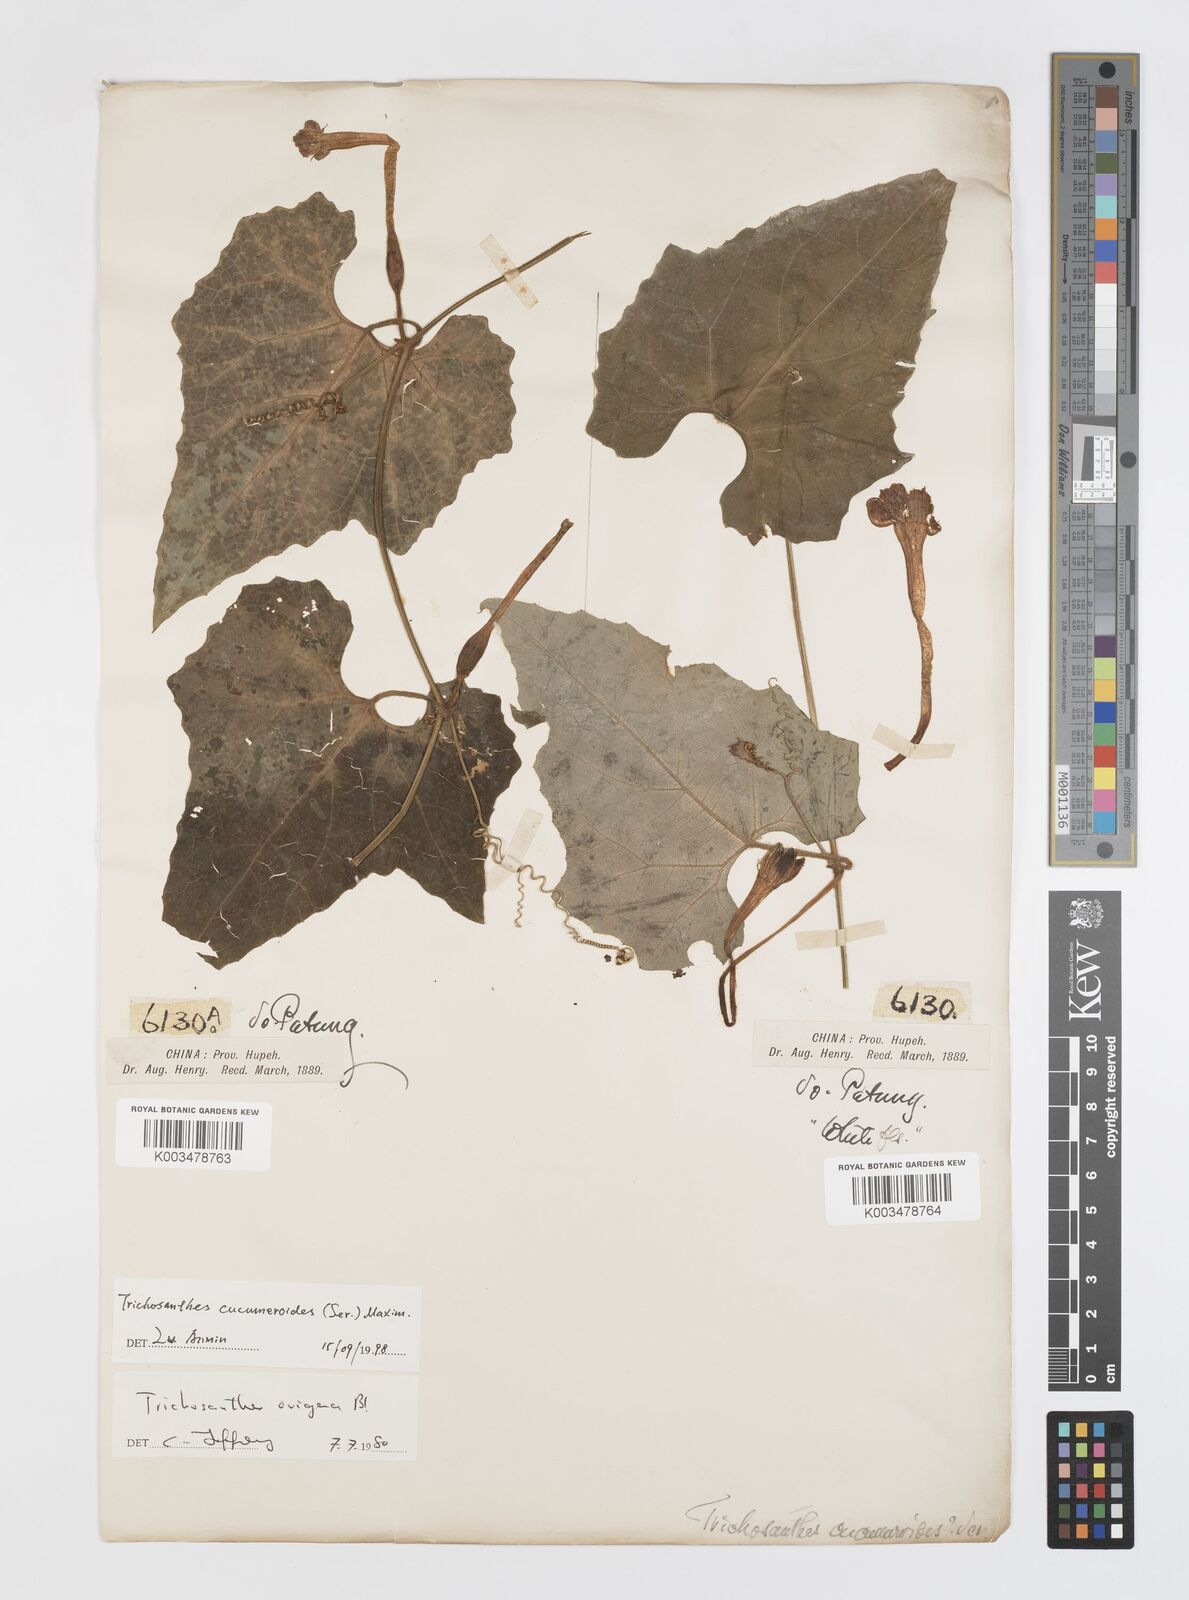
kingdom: Plantae
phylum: Tracheophyta
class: Magnoliopsida
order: Cucurbitales
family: Cucurbitaceae
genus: Trichosanthes
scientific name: Trichosanthes ovigera
